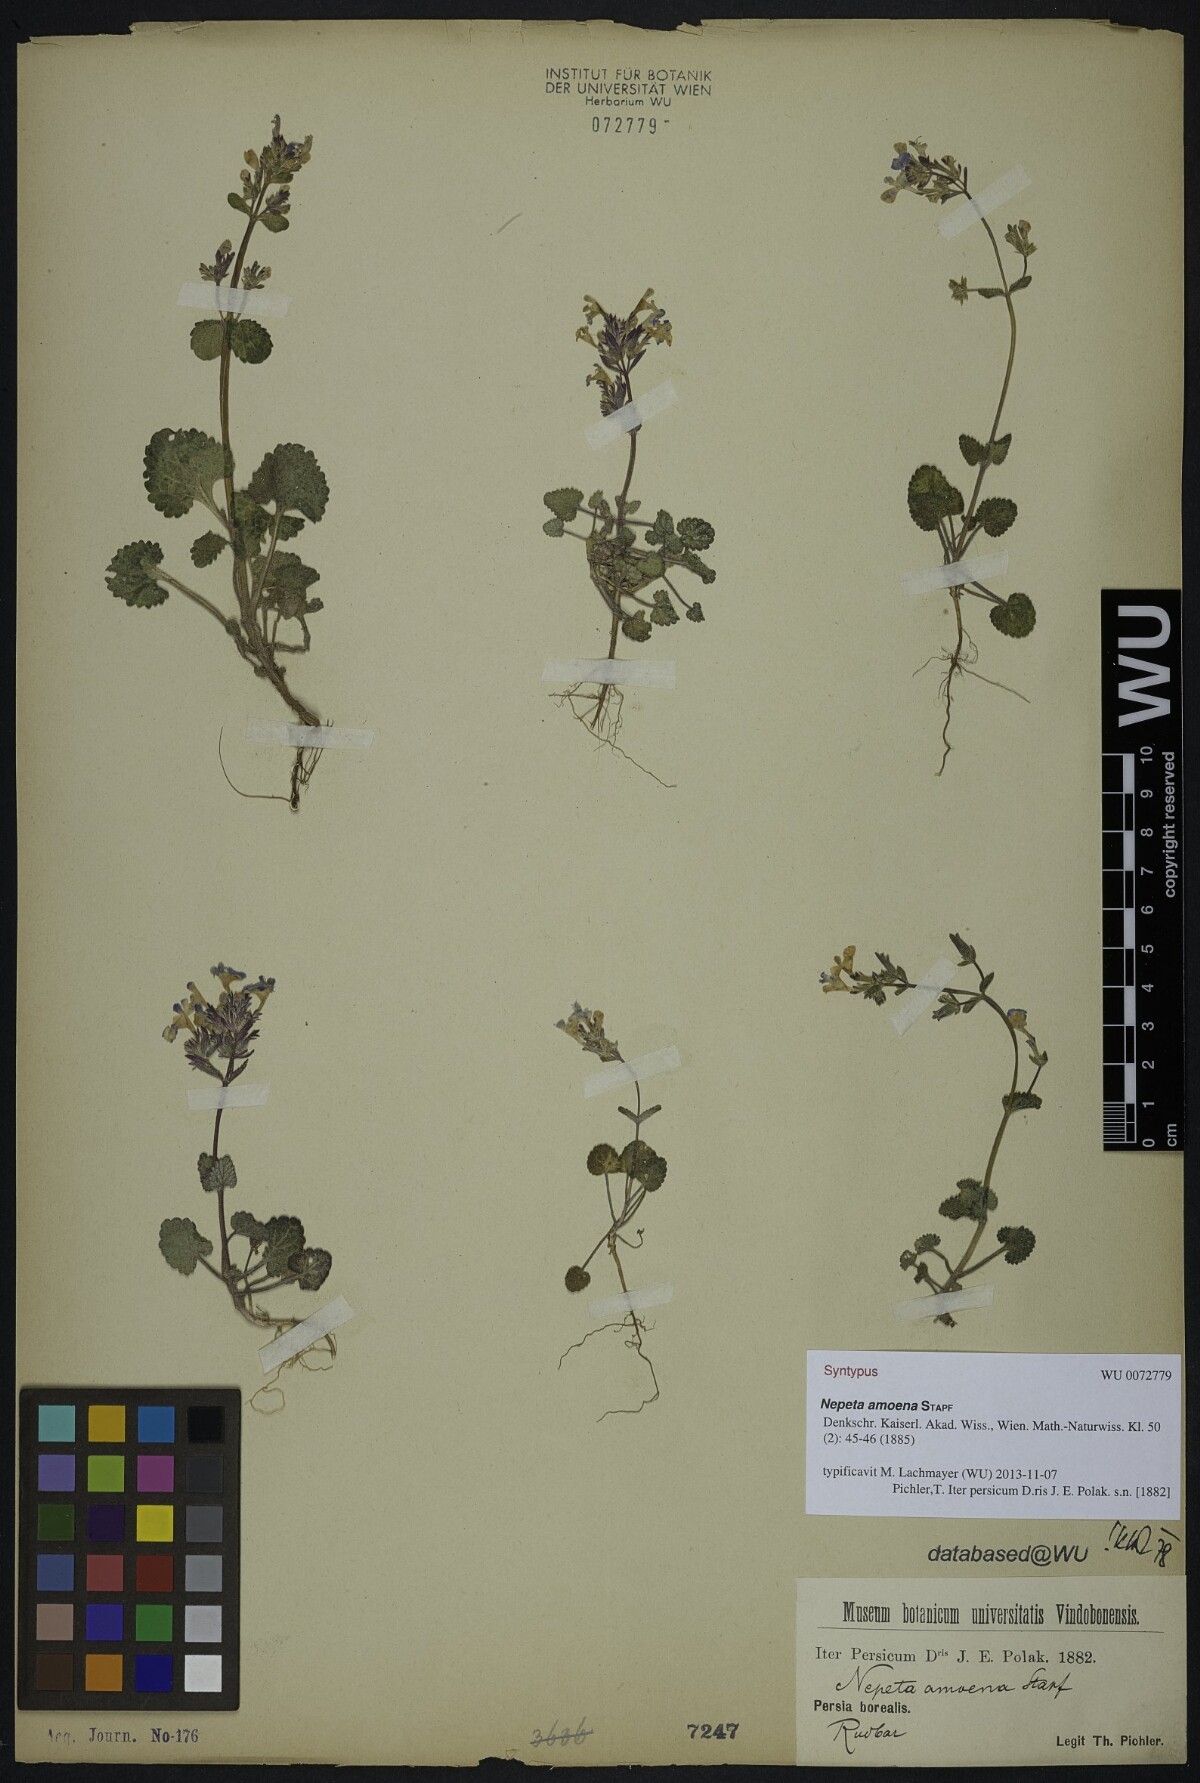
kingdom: Plantae
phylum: Tracheophyta
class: Magnoliopsida
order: Lamiales
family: Lamiaceae
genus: Nepeta
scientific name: Nepeta amoena
